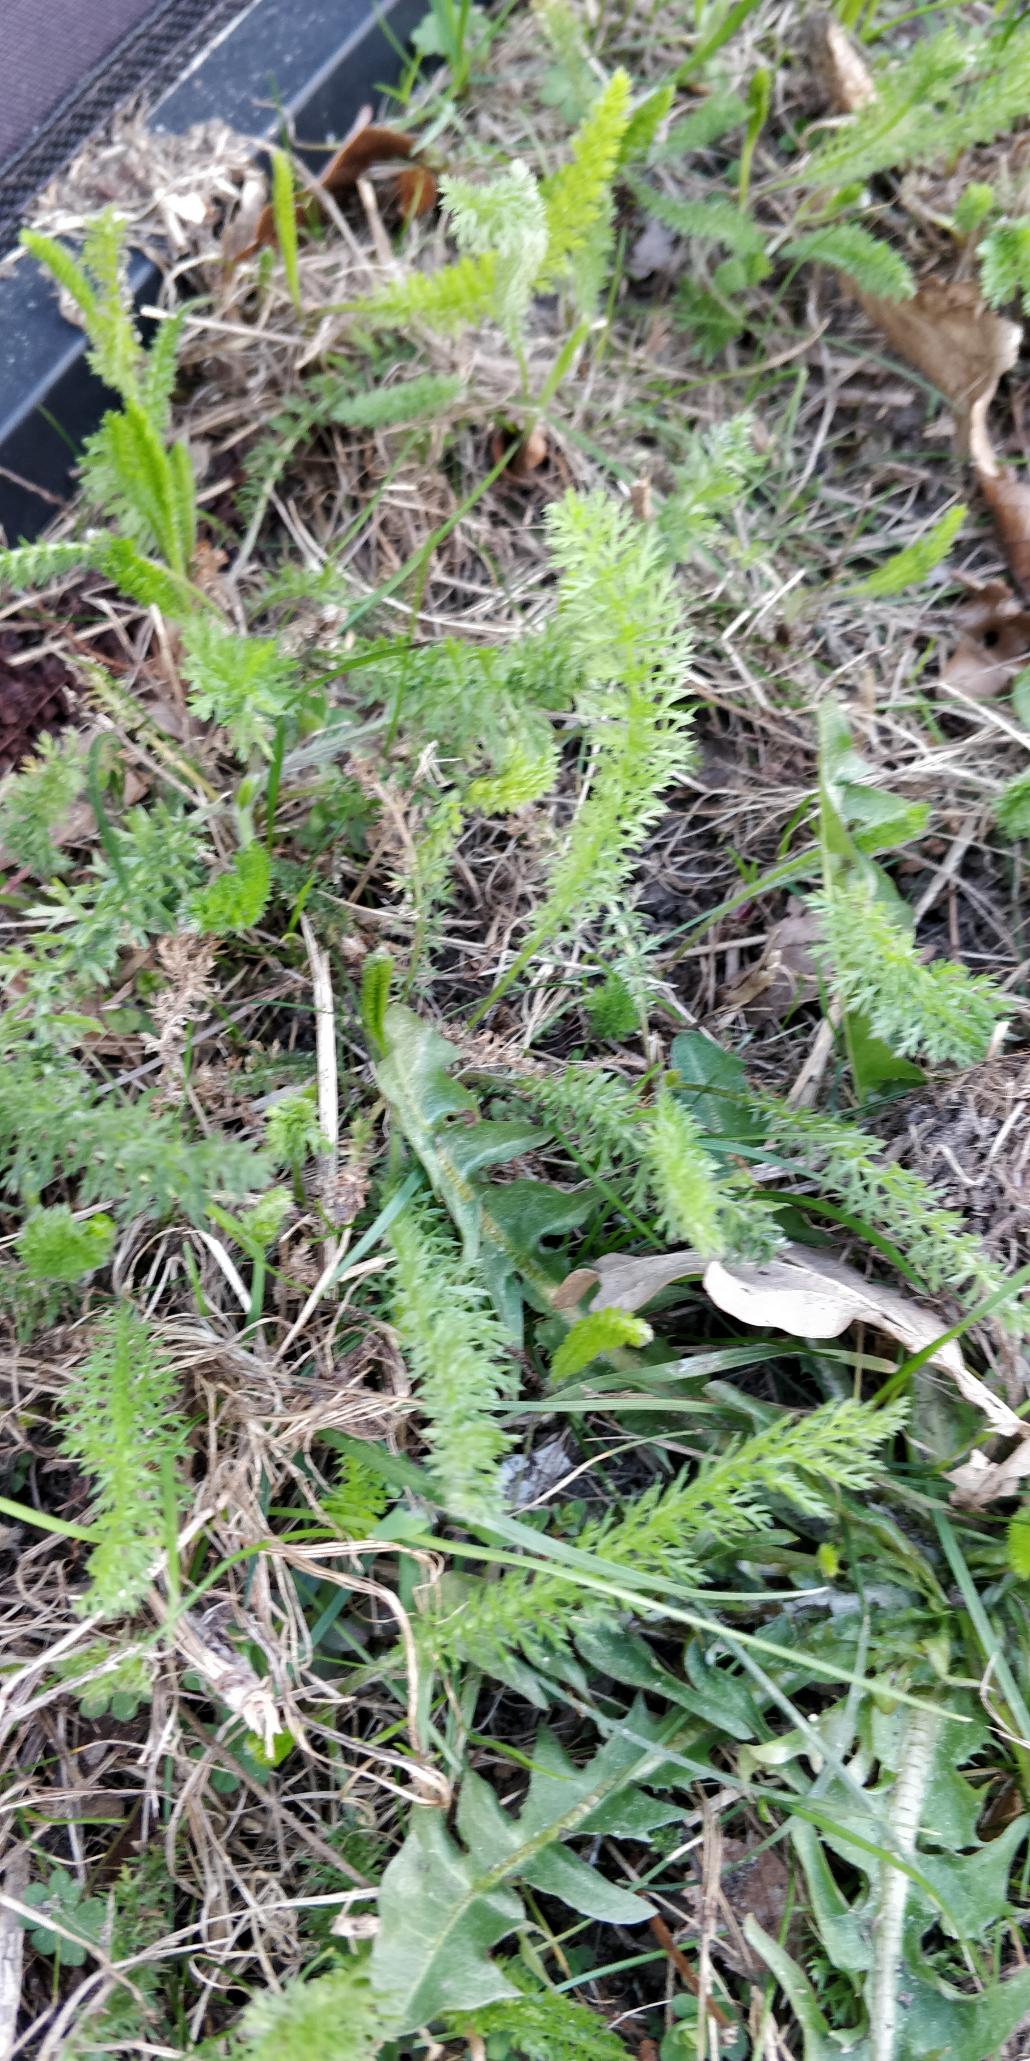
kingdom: Plantae
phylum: Tracheophyta
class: Magnoliopsida
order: Asterales
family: Asteraceae
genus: Achillea
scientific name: Achillea millefolium
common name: Almindelig røllike
